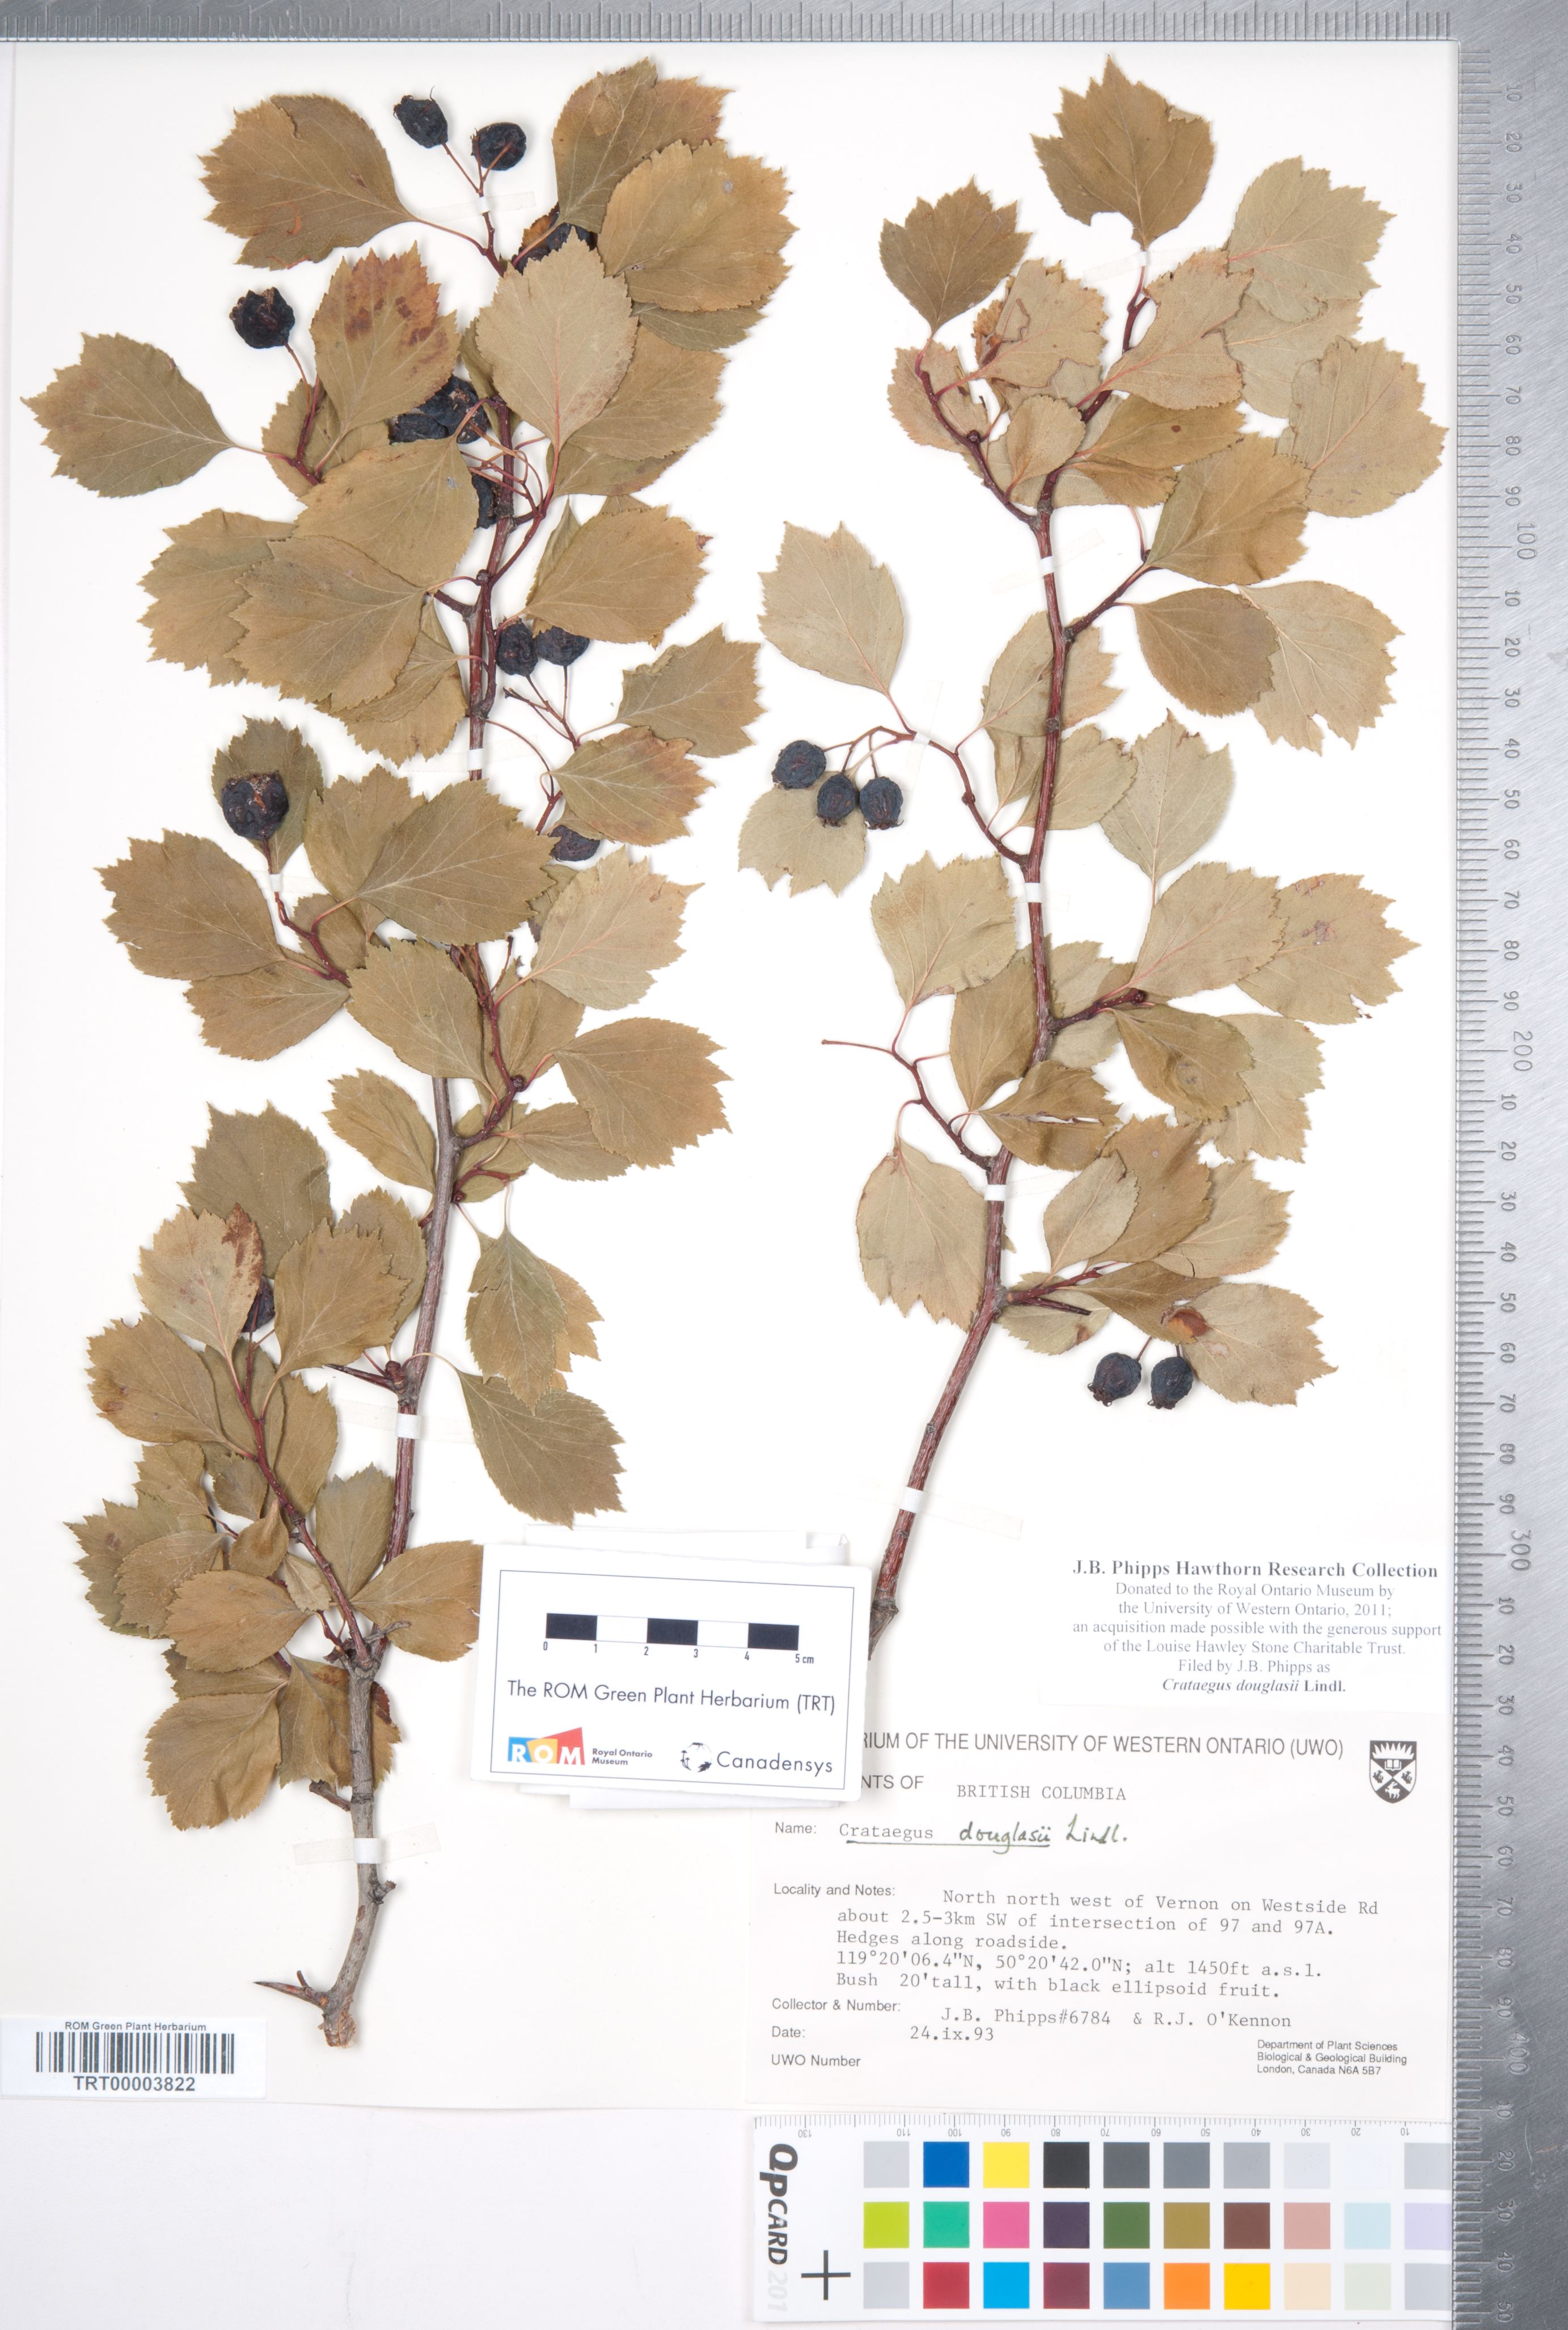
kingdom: Plantae
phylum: Tracheophyta
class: Magnoliopsida
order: Rosales
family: Rosaceae
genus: Crataegus
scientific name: Crataegus douglasii
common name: Black hawthorn
